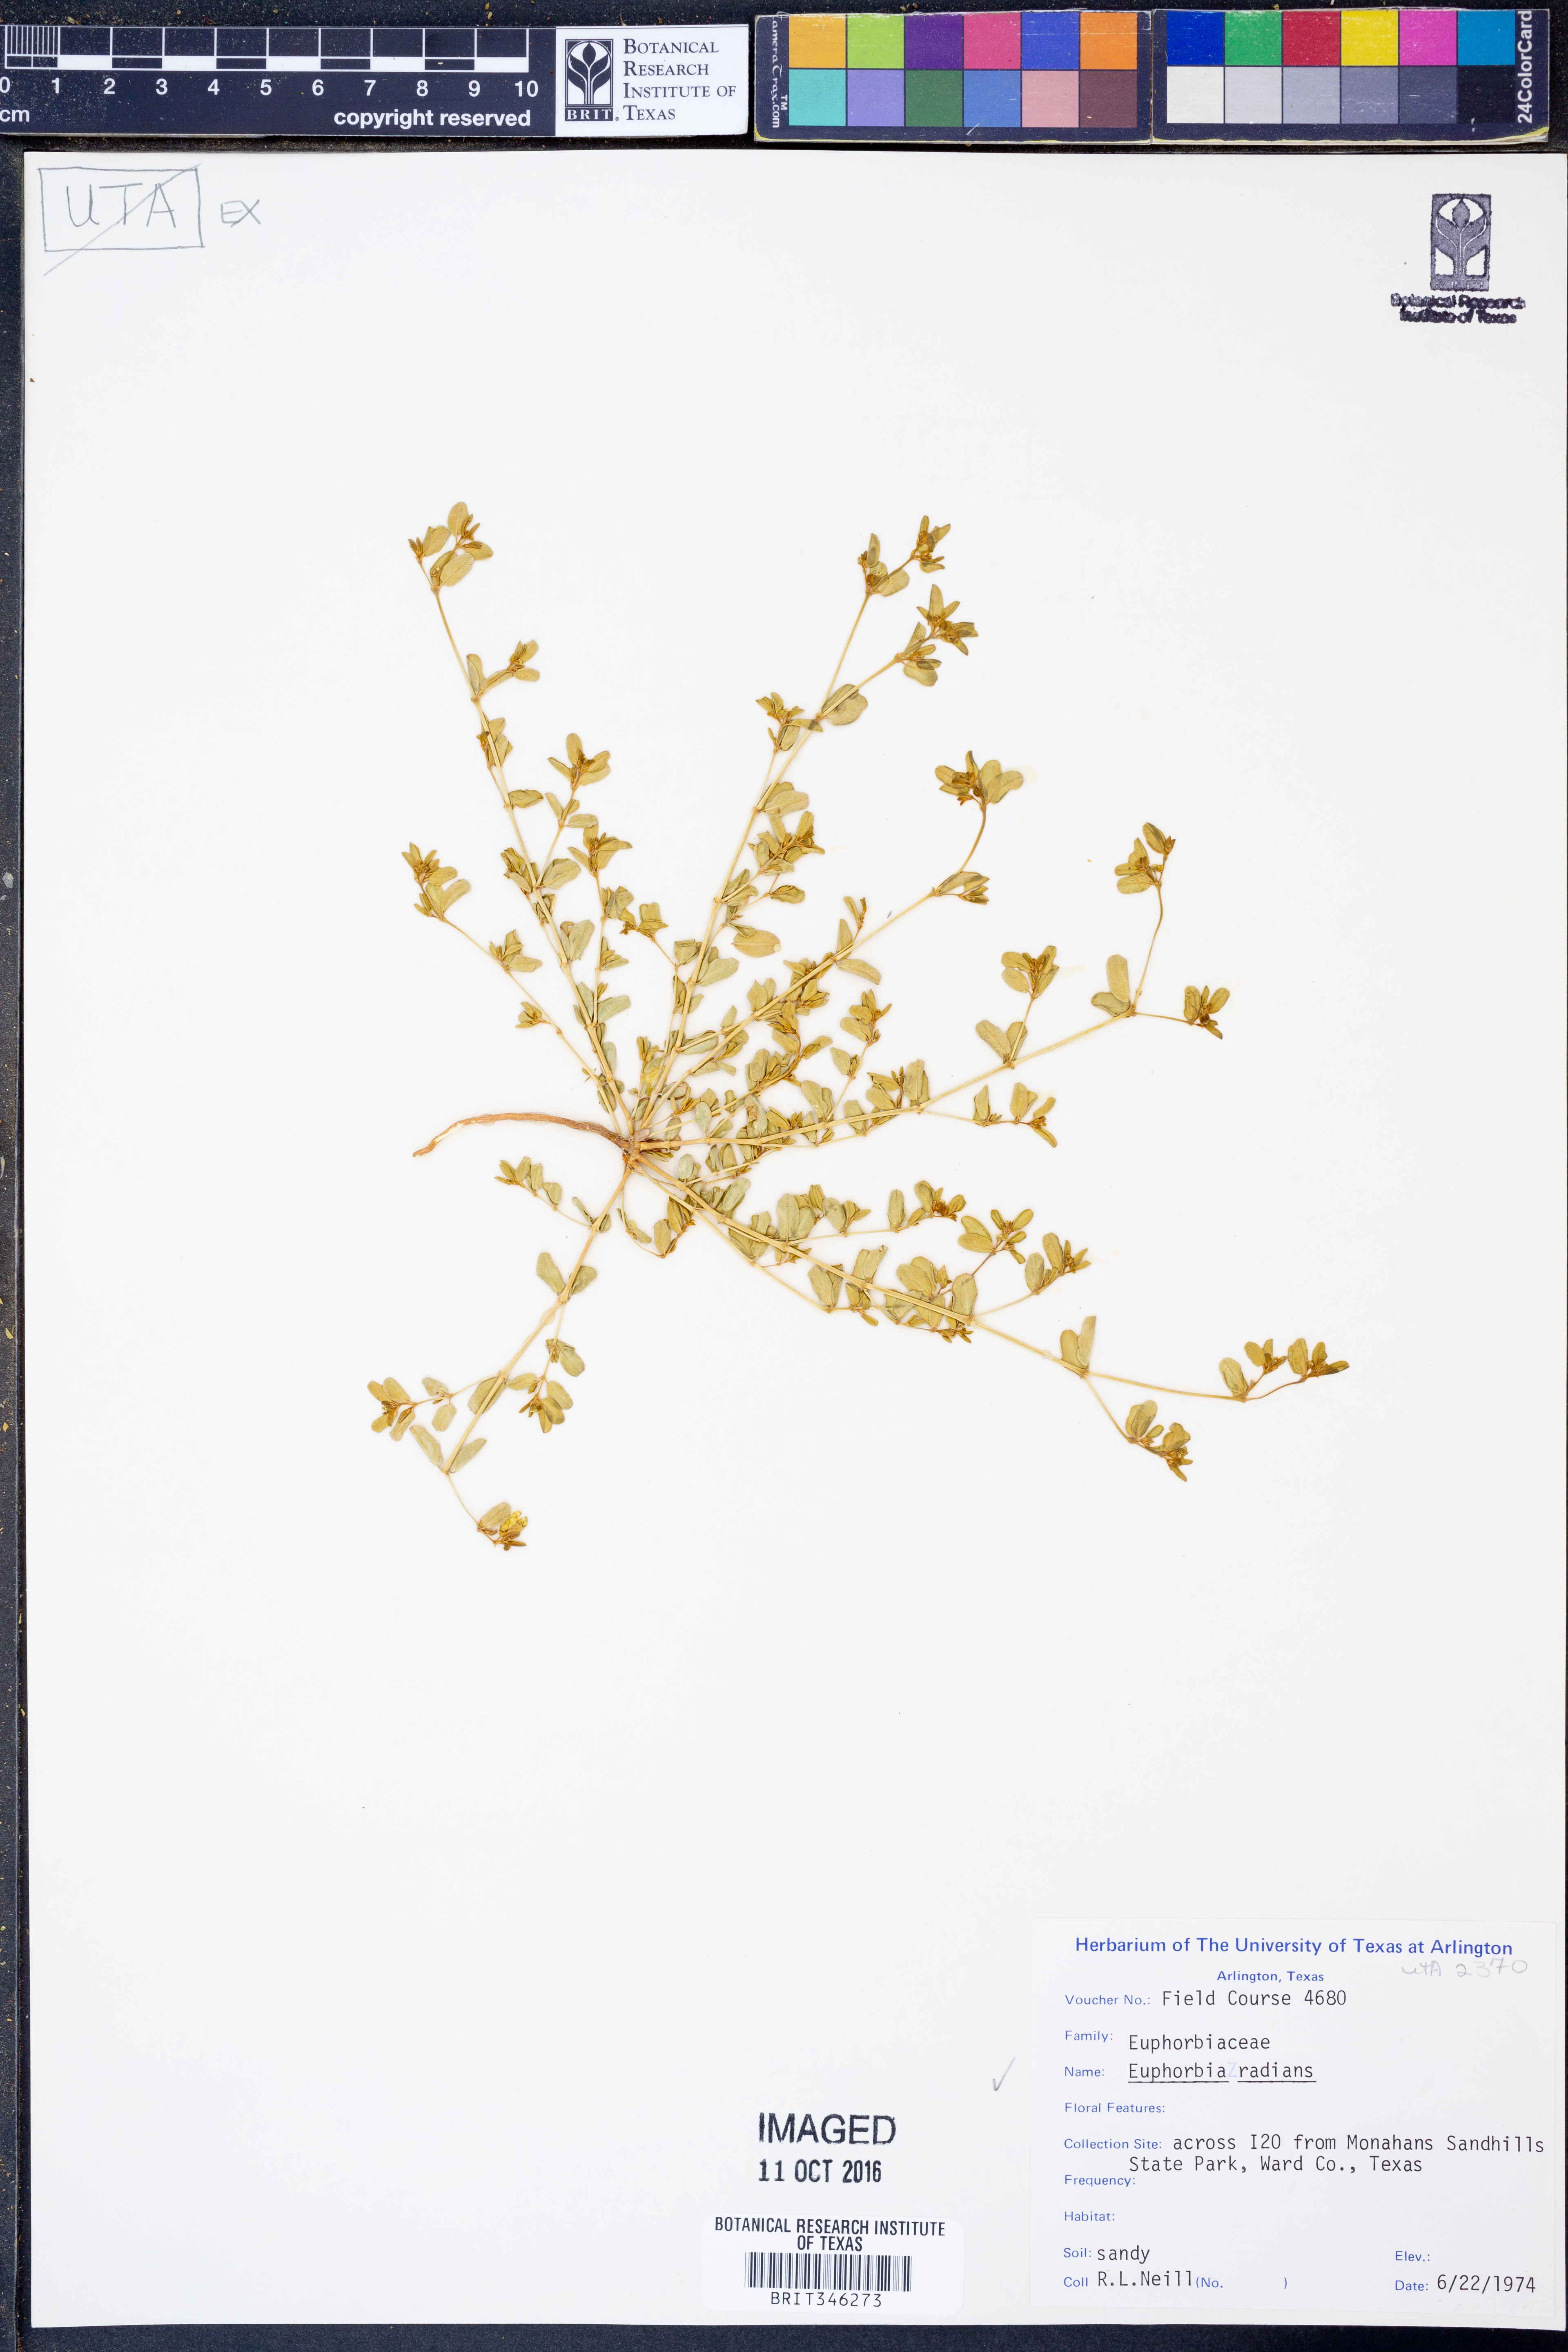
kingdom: Plantae
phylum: Tracheophyta
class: Magnoliopsida
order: Malpighiales
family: Euphorbiaceae
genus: Euphorbia
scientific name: Euphorbia radians
